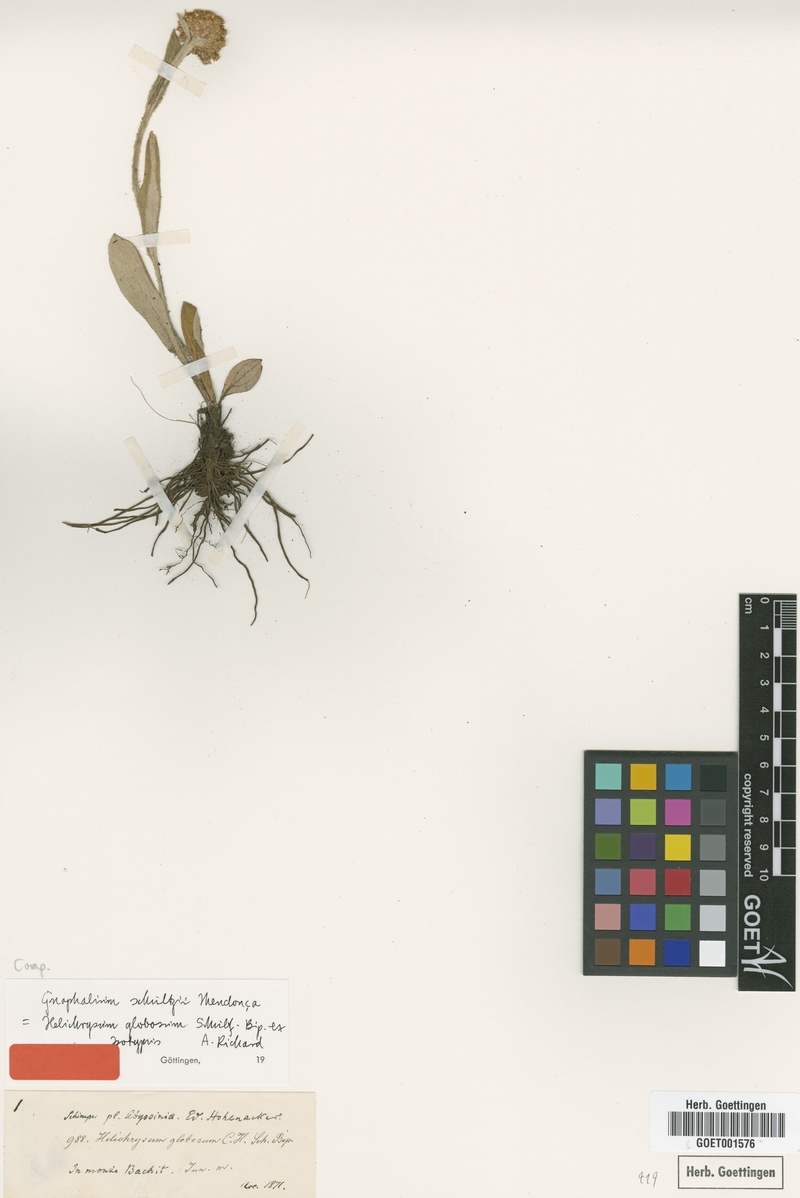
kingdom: Plantae
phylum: Tracheophyta
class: Magnoliopsida
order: Asterales
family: Asteraceae
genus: Helichrysum
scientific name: Helichrysum globosum
